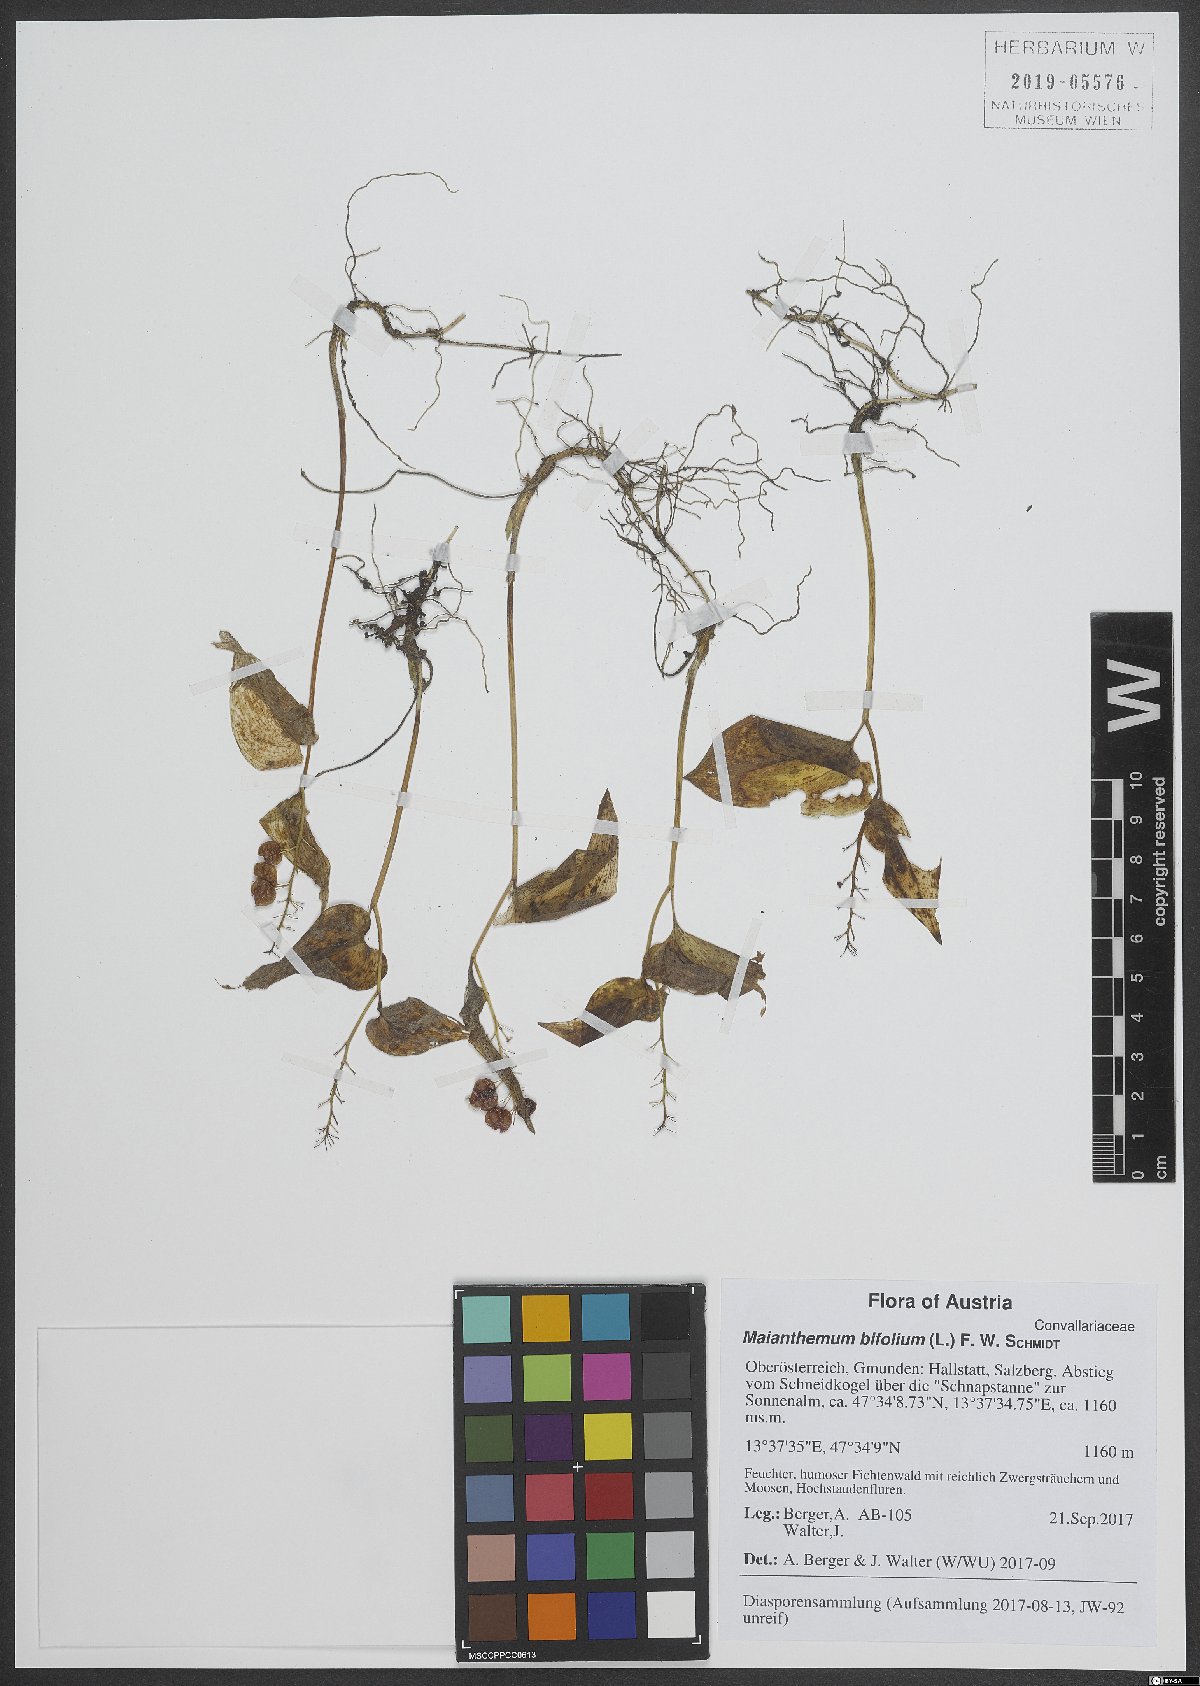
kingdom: Plantae
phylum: Tracheophyta
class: Liliopsida
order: Asparagales
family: Asparagaceae
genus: Maianthemum
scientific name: Maianthemum bifolium
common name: May lily
